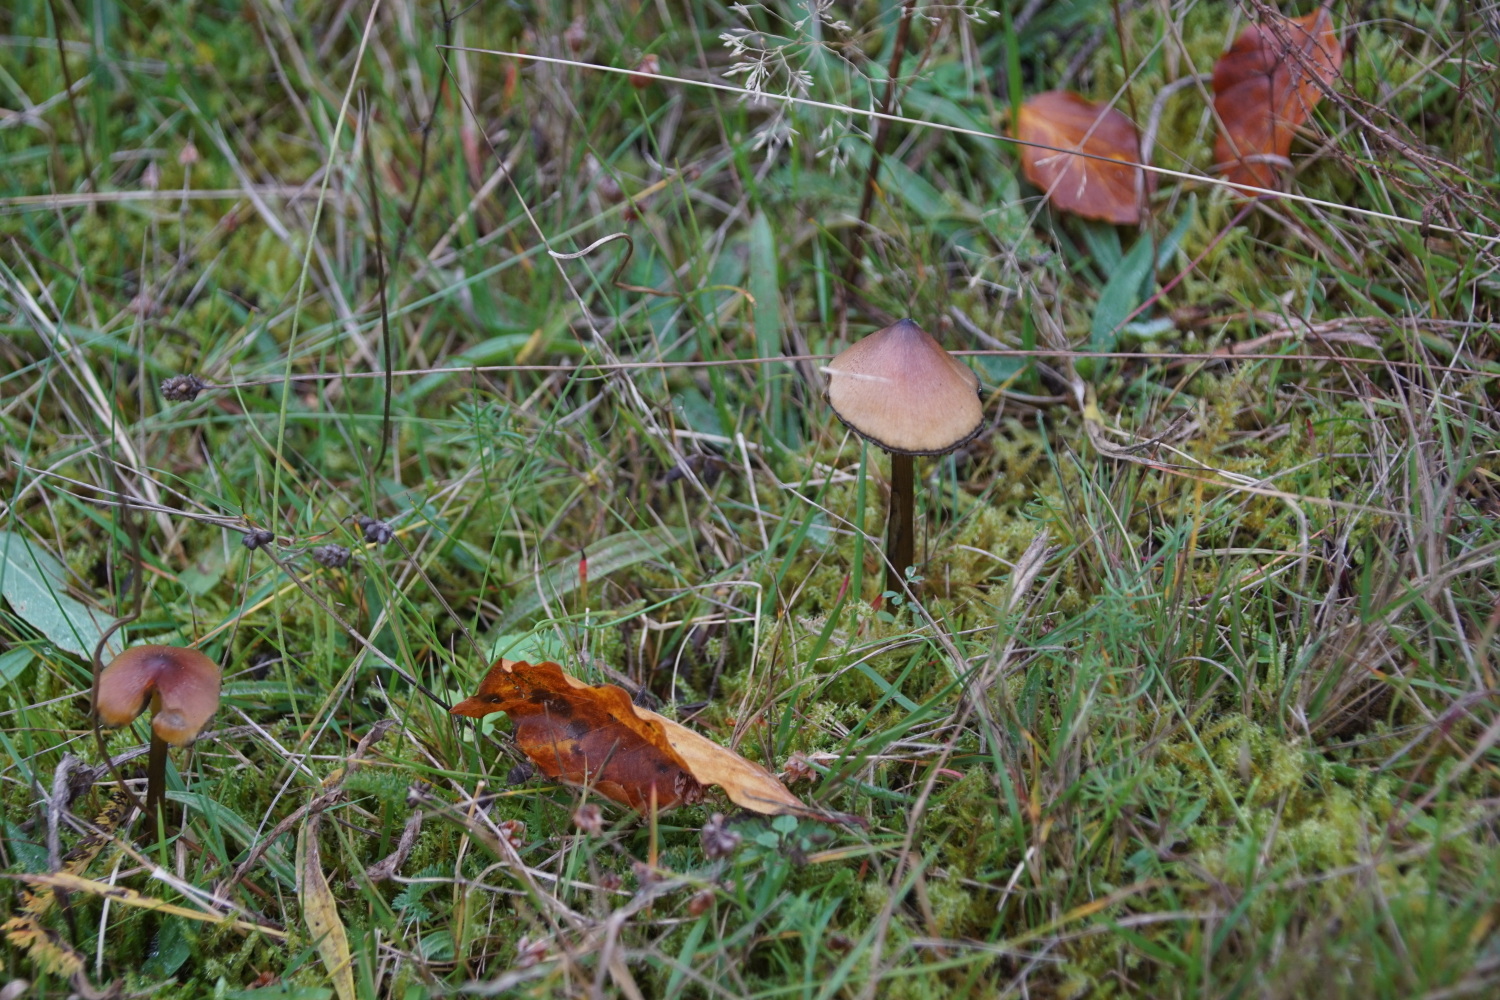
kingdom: Fungi
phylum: Basidiomycota
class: Agaricomycetes
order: Agaricales
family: Hygrophoraceae
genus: Hygrocybe
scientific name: Hygrocybe conica
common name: kegle-vokshat
